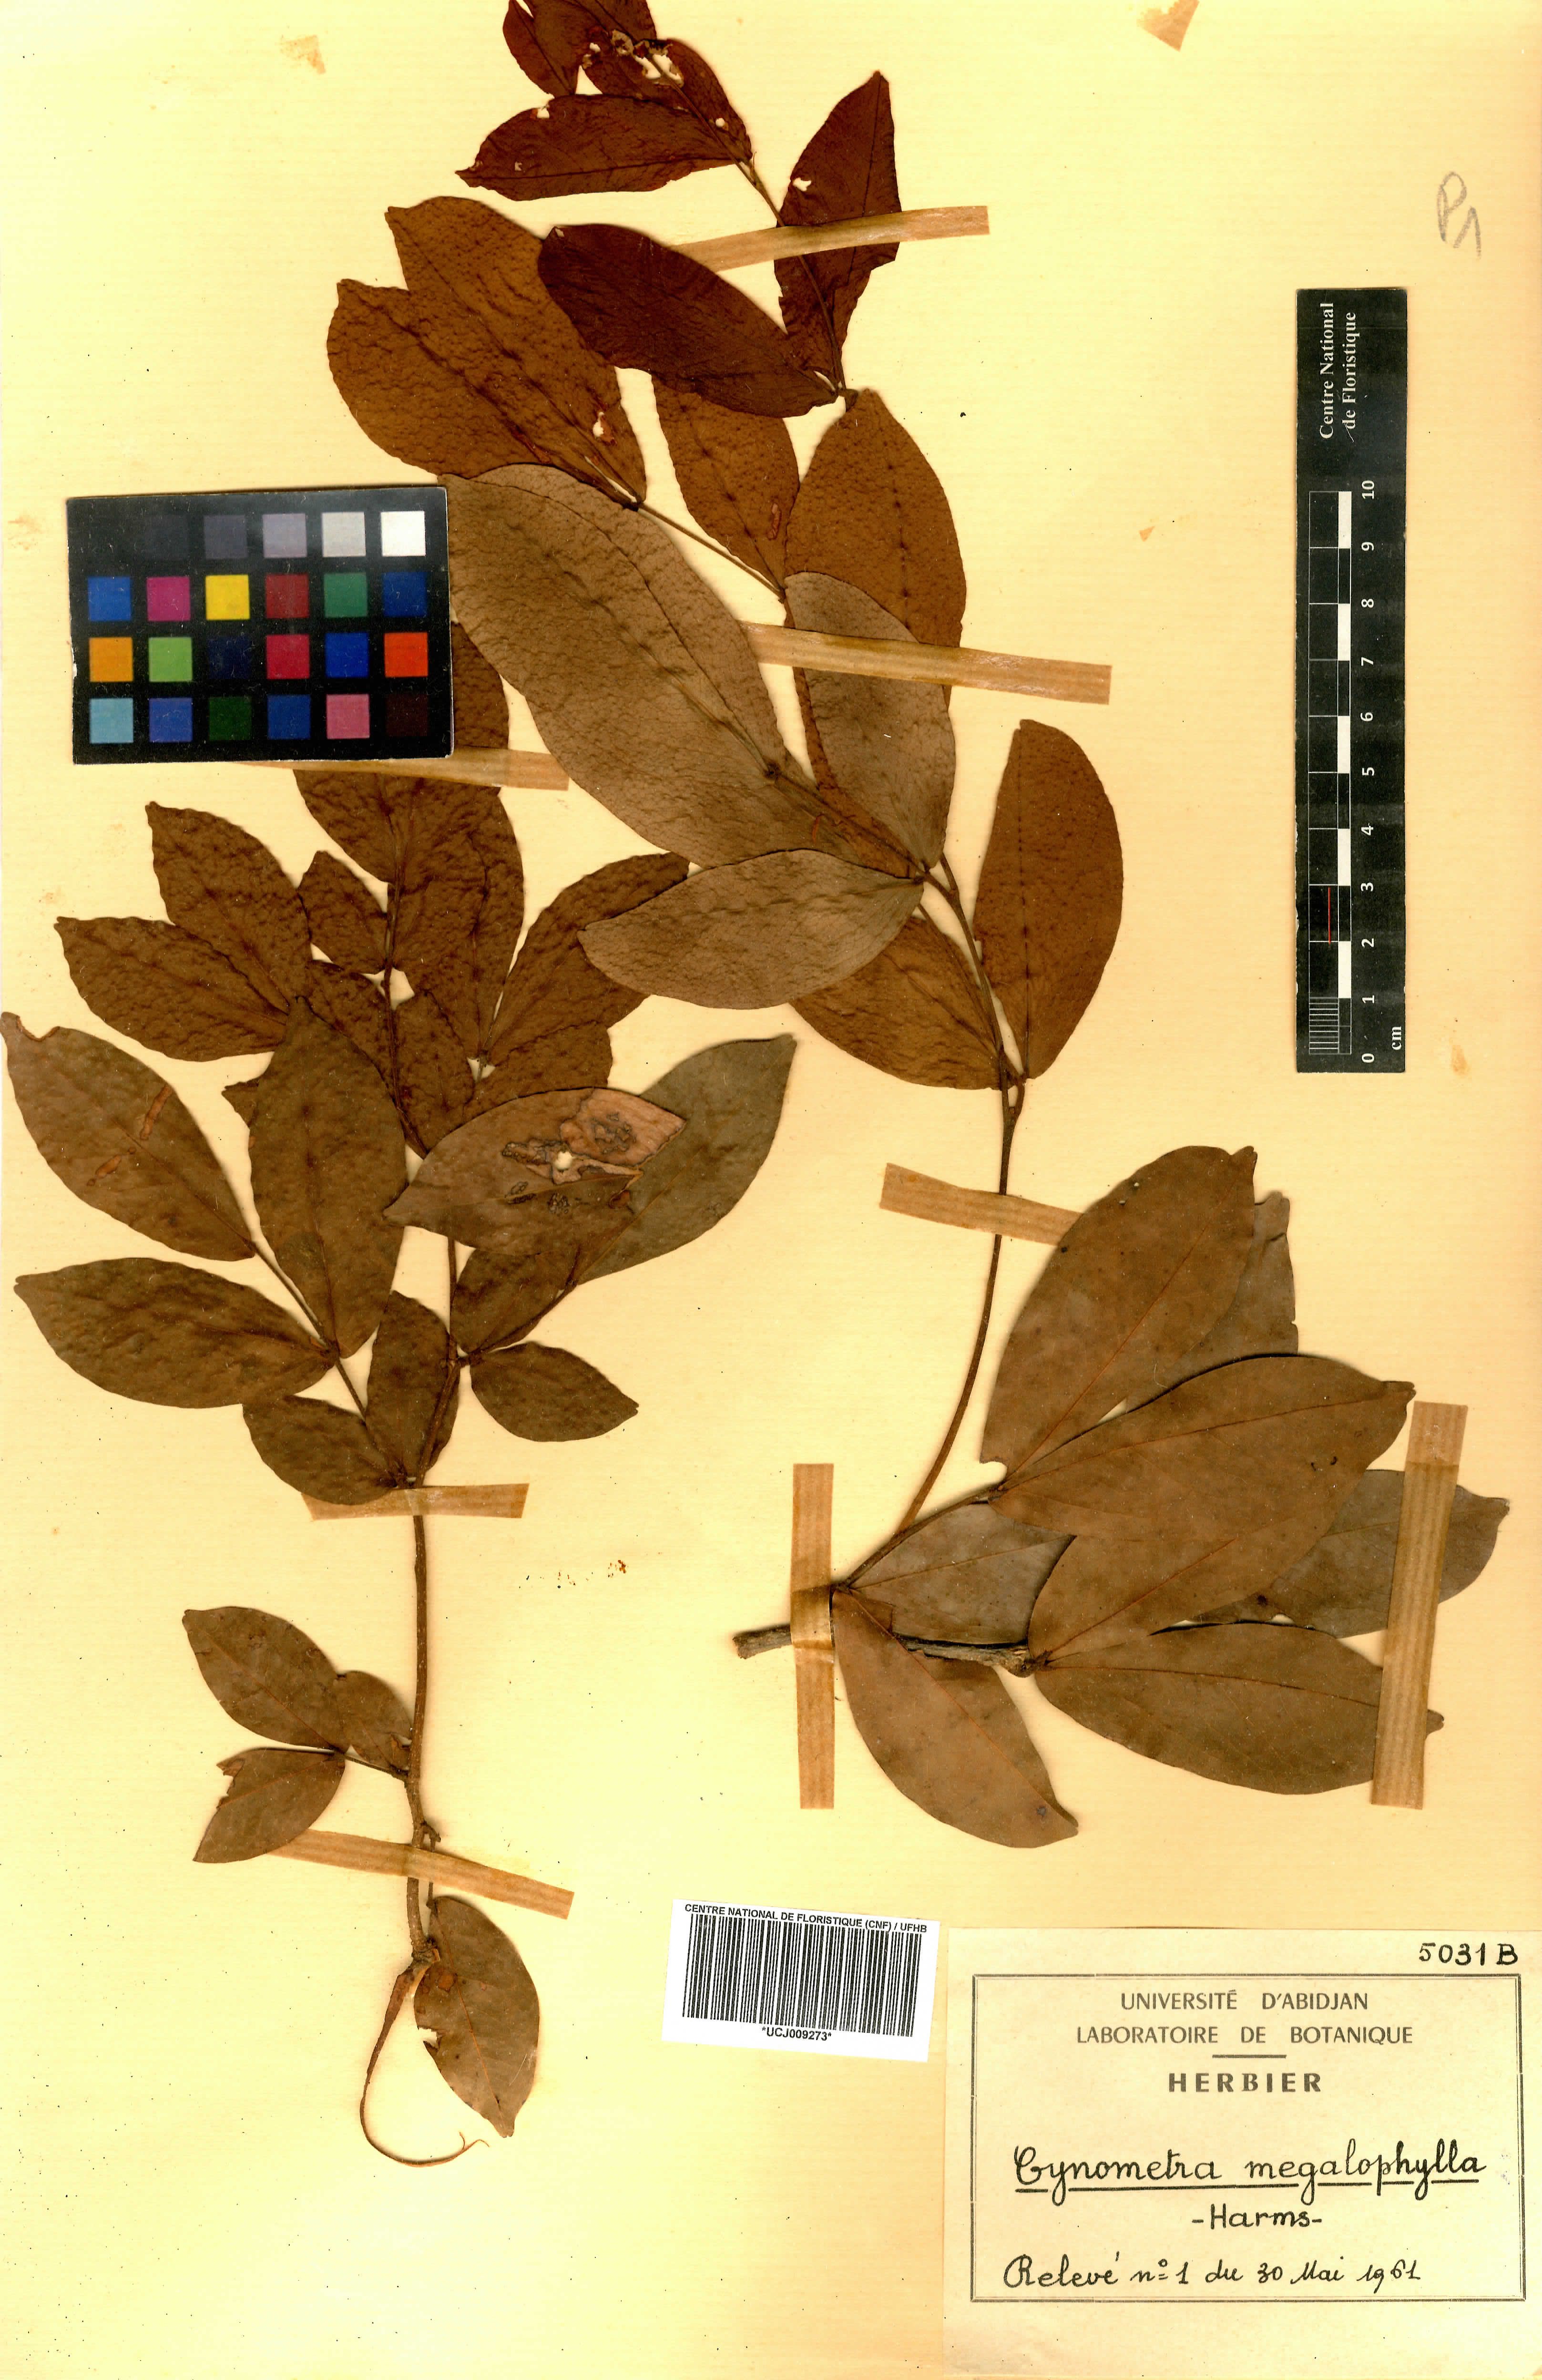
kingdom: Plantae
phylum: Tracheophyta
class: Magnoliopsida
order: Fabales
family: Fabaceae
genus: Cynometra
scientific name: Cynometra megalophylla
